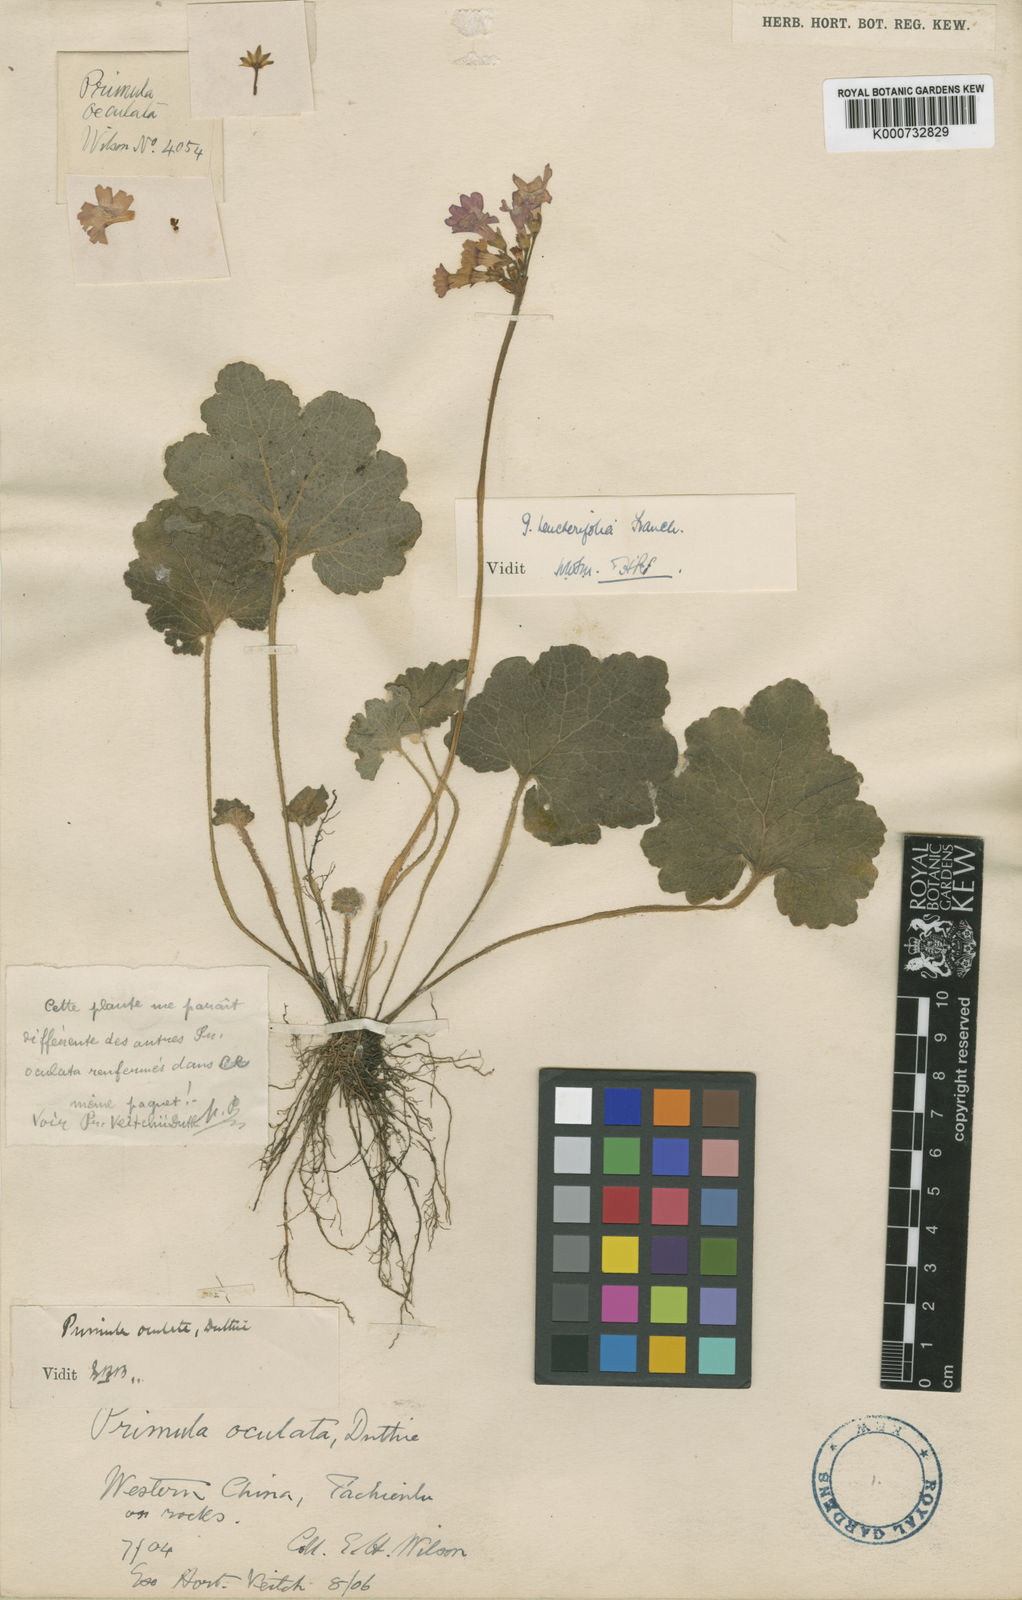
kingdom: Plantae
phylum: Tracheophyta
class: Magnoliopsida
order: Ericales
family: Primulaceae
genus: Primula
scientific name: Primula heucherifolia
